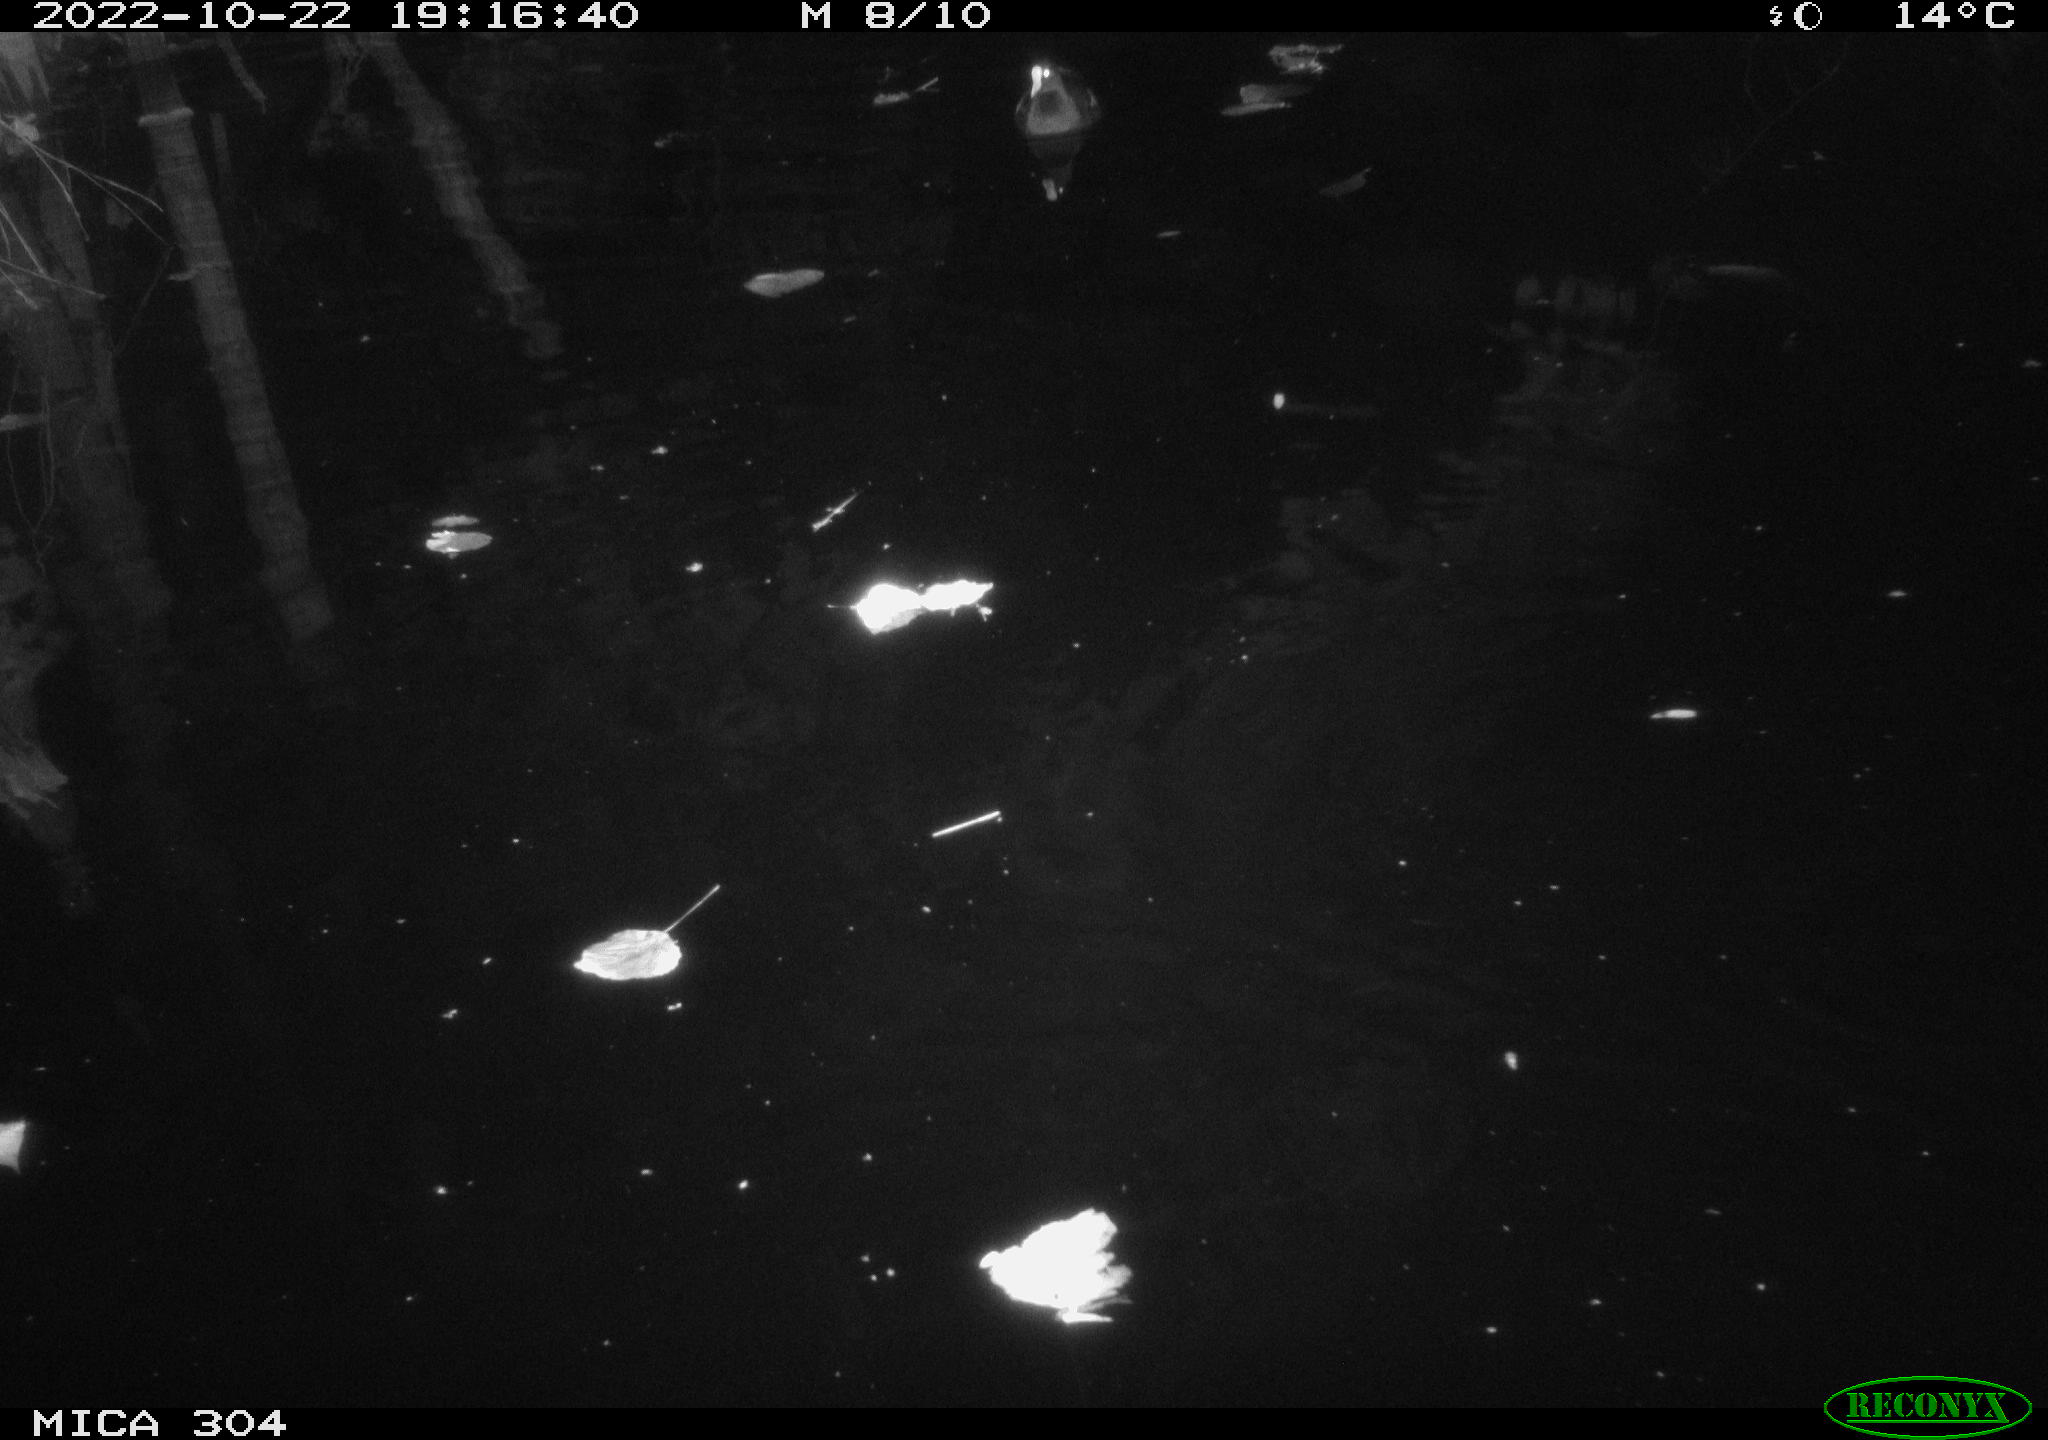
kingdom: Animalia
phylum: Chordata
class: Aves
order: Gruiformes
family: Rallidae
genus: Gallinula
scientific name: Gallinula chloropus
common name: Common moorhen
